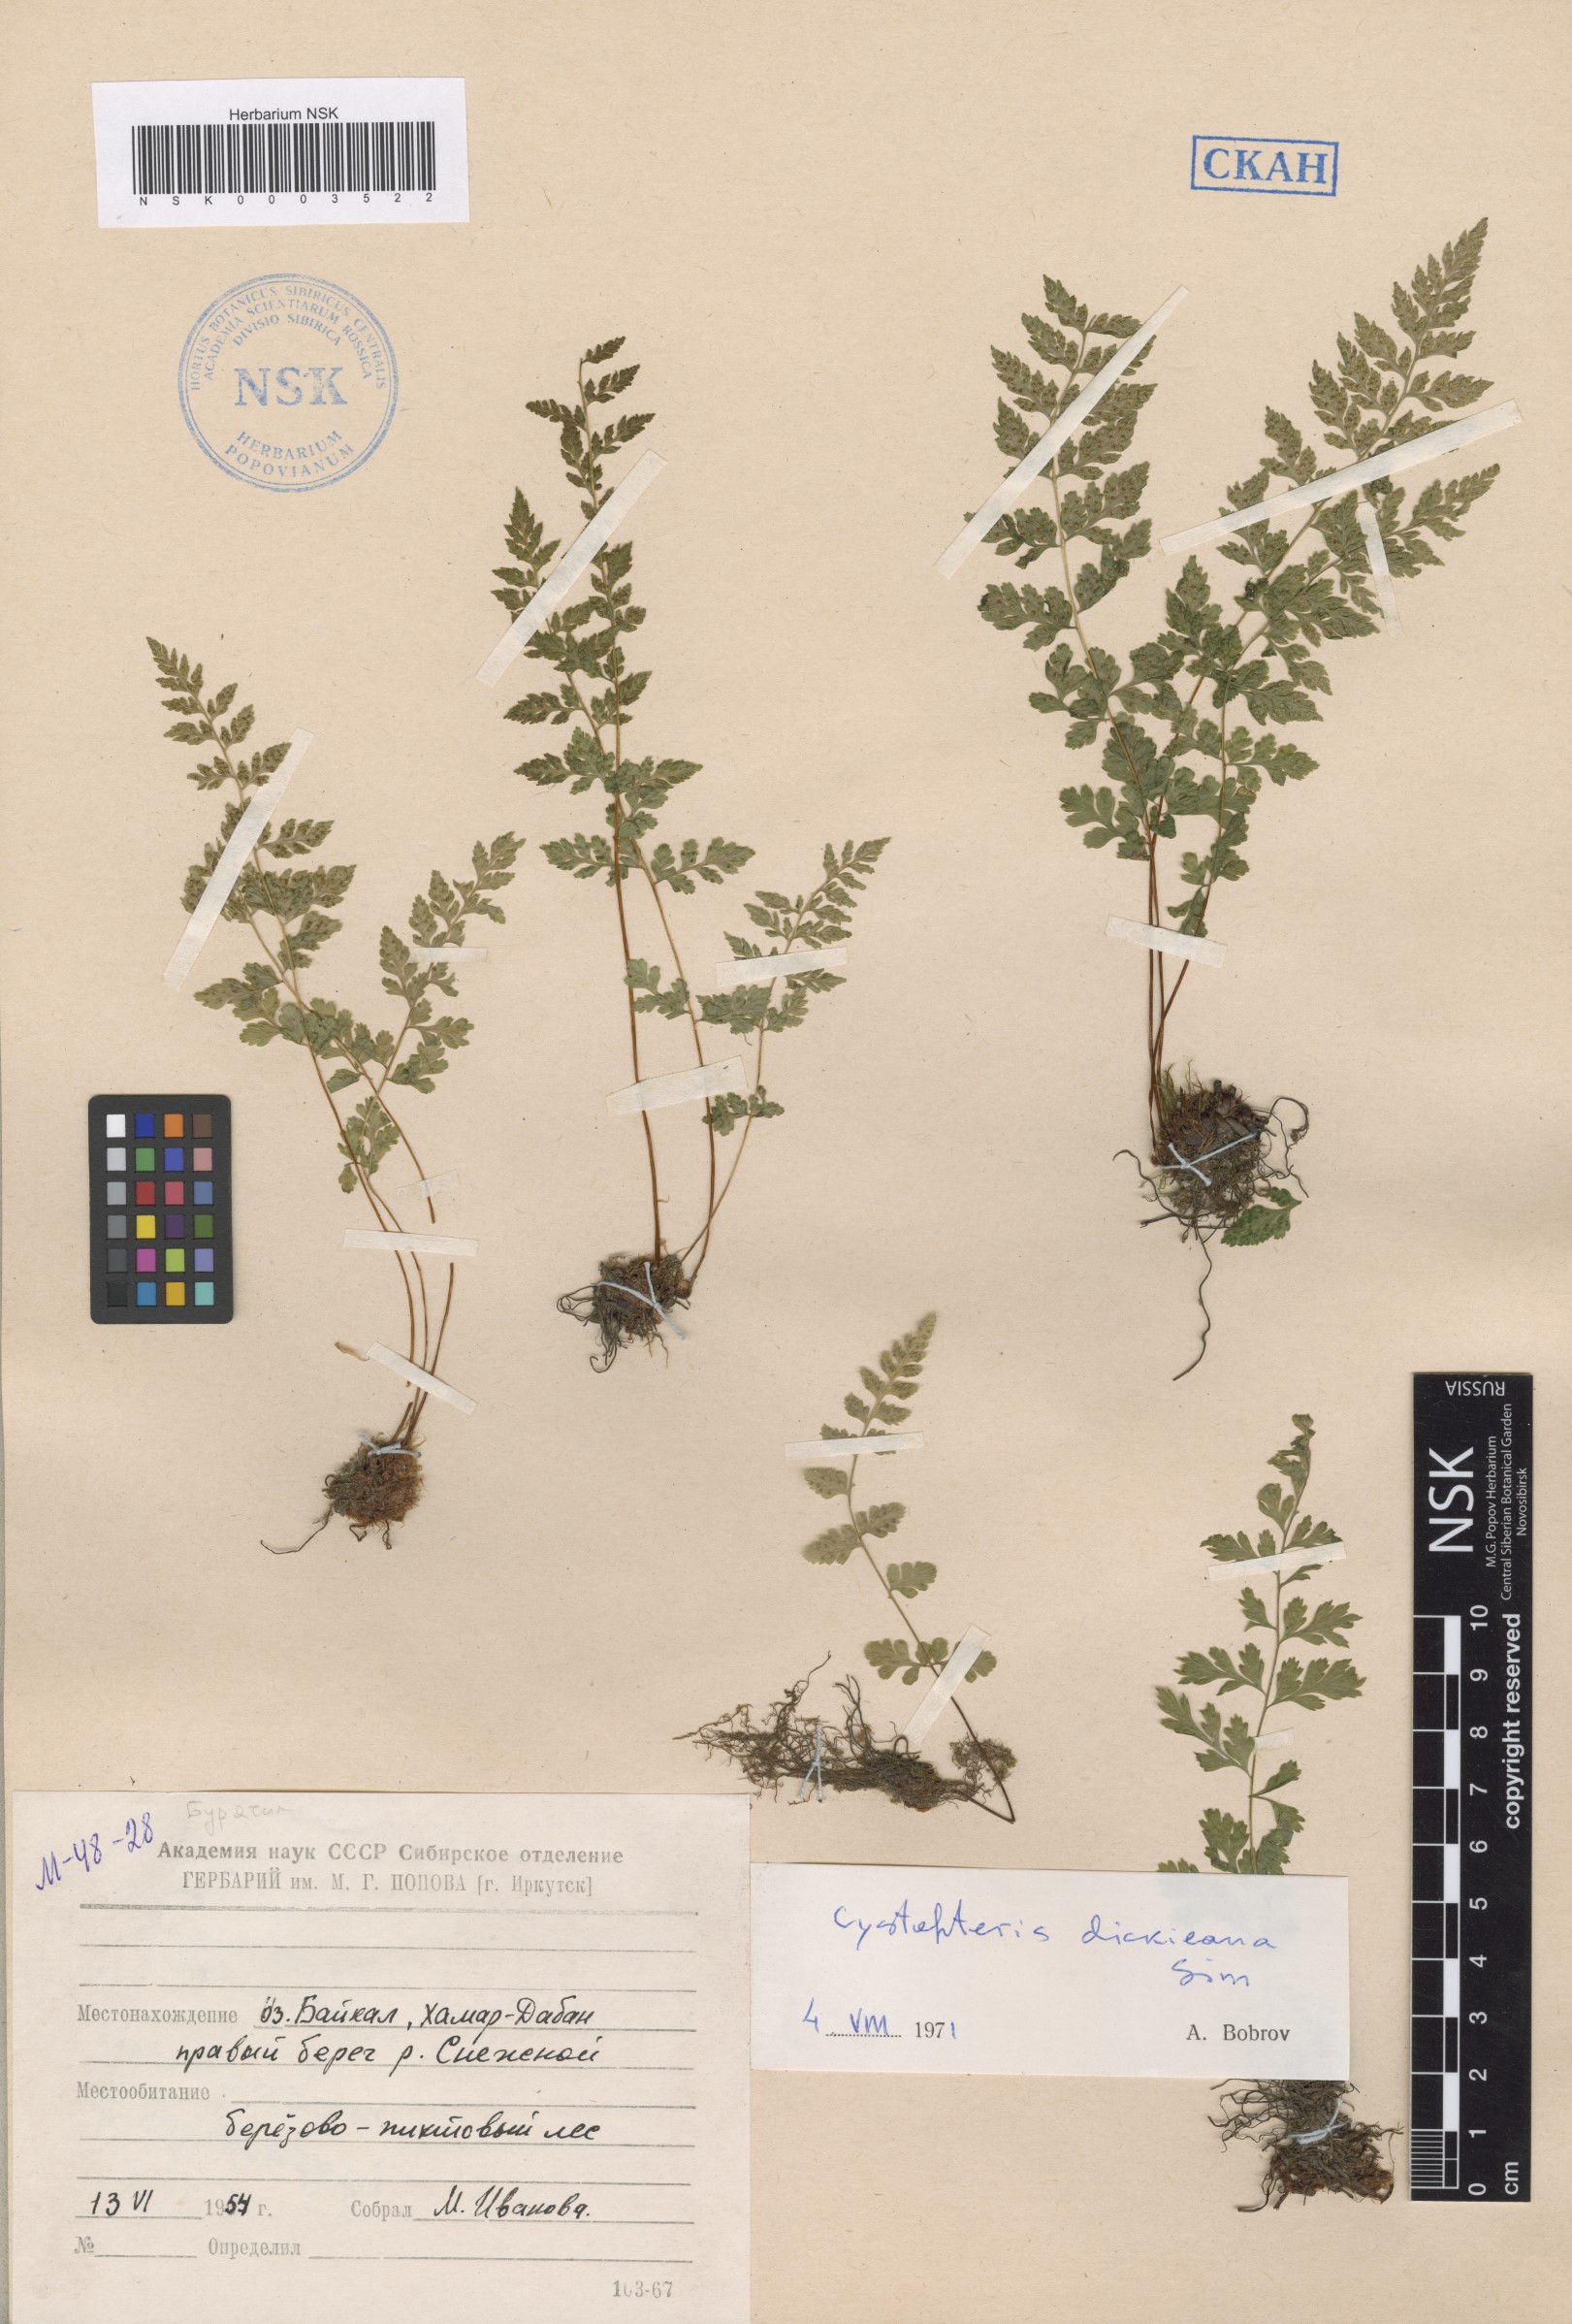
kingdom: Plantae
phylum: Tracheophyta
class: Polypodiopsida
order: Polypodiales
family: Cystopteridaceae
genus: Cystopteris
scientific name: Cystopteris dickieana
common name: Dickie's bladder-fern
